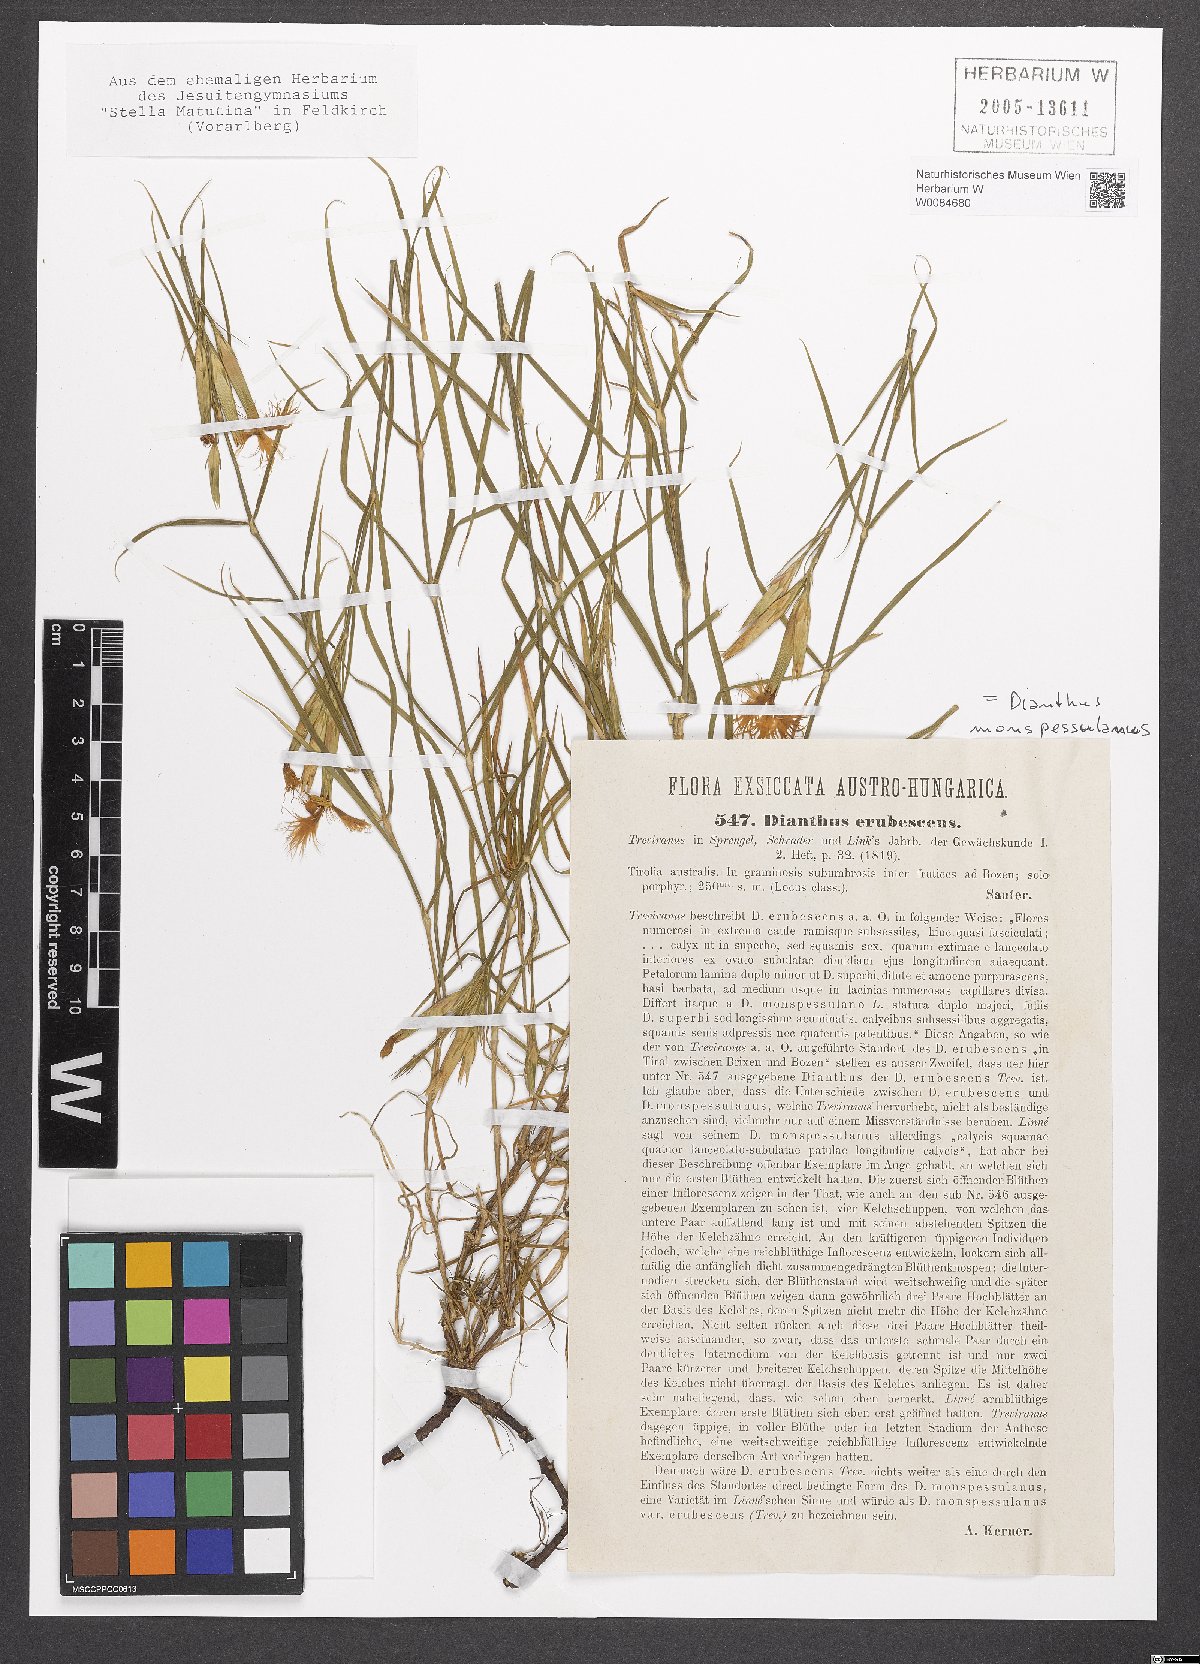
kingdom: Plantae
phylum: Tracheophyta
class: Magnoliopsida
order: Caryophyllales
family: Caryophyllaceae
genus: Dianthus
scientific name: Dianthus hyssopifolius
